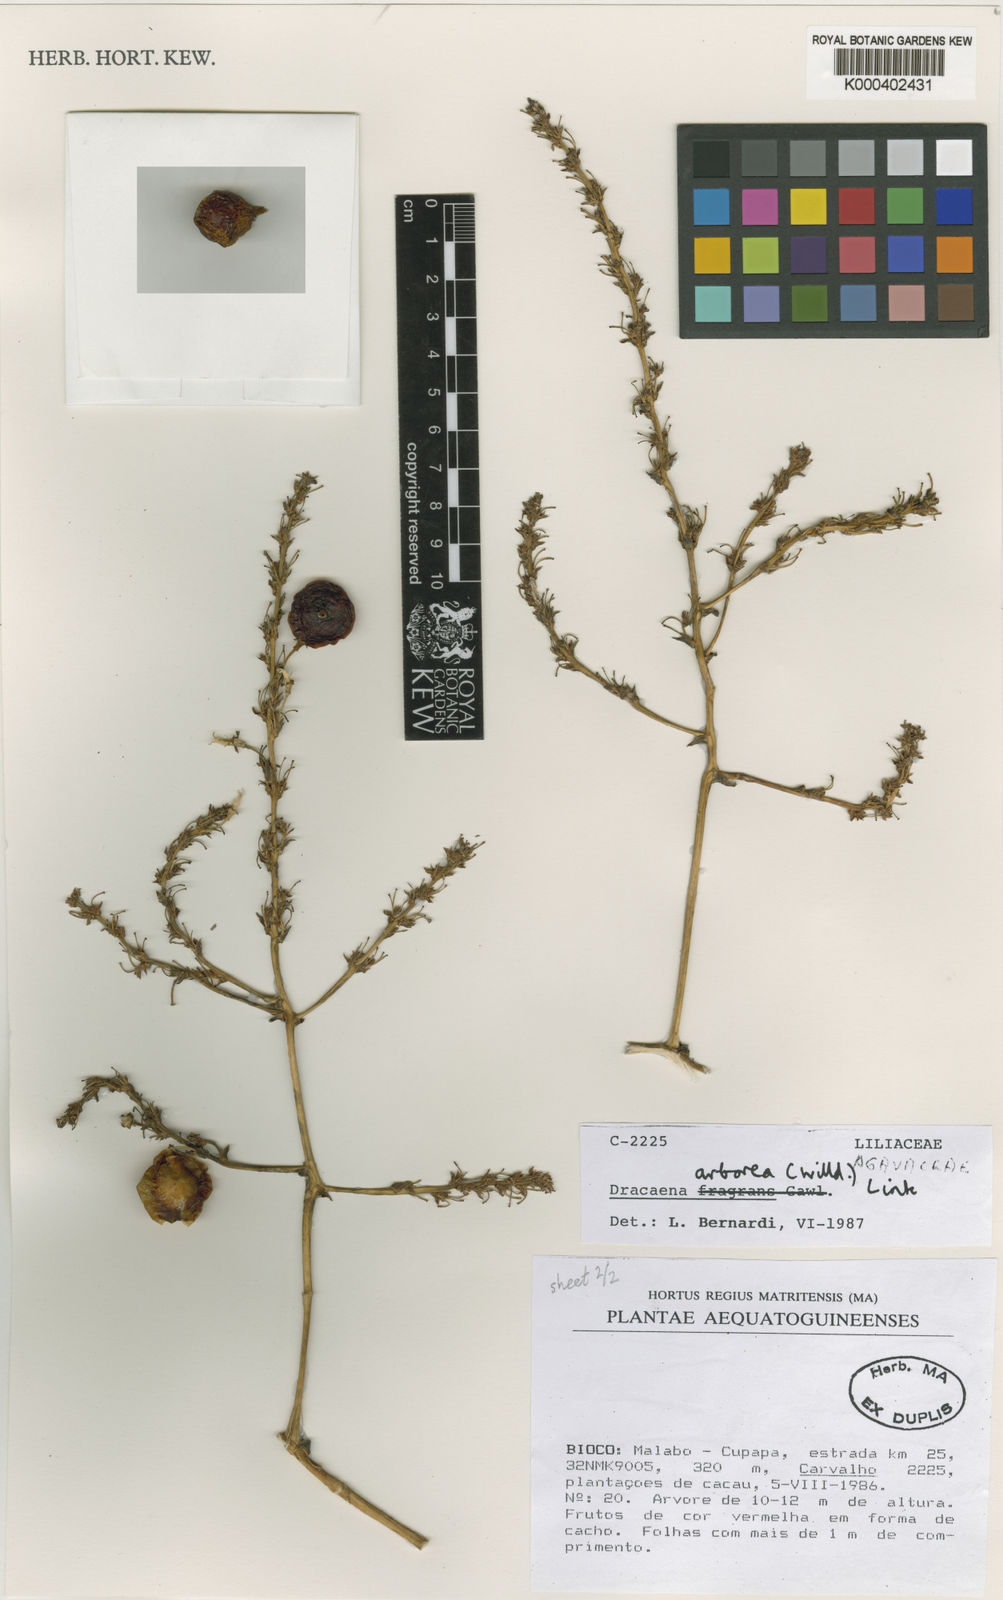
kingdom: Plantae
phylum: Tracheophyta
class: Liliopsida
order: Asparagales
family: Asparagaceae
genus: Dracaena
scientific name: Dracaena arborea
